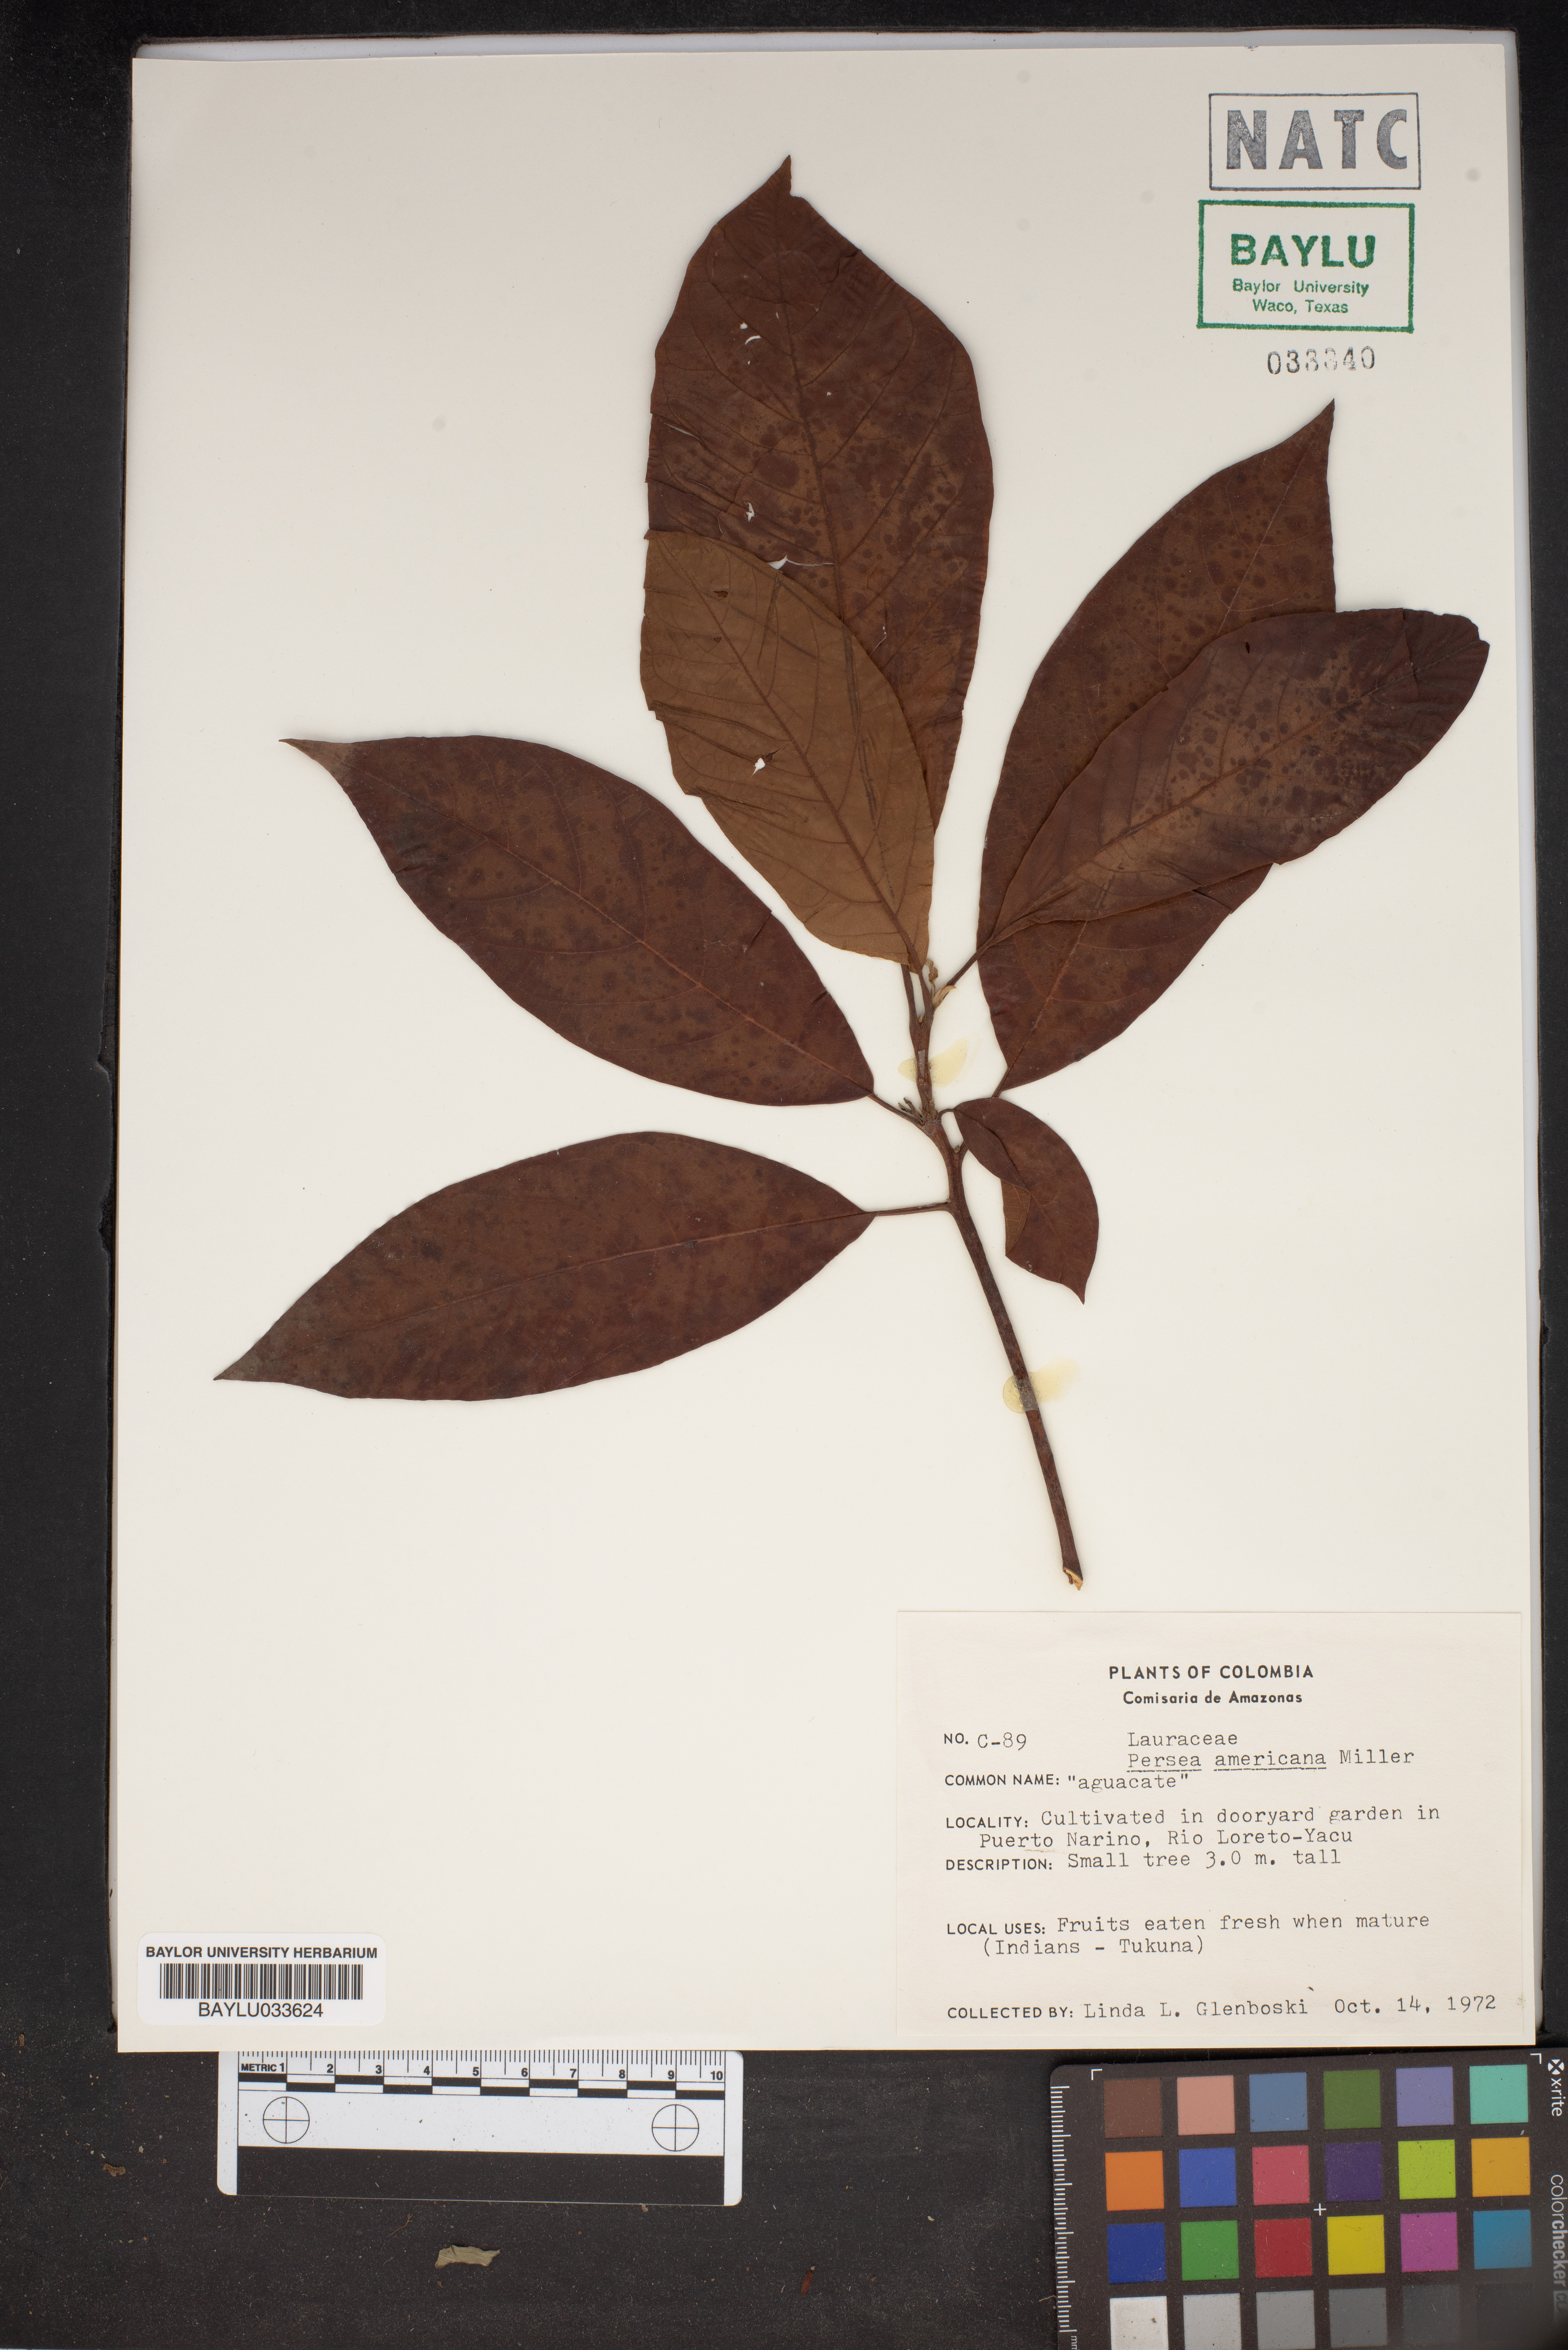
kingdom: Plantae
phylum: Tracheophyta
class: Magnoliopsida
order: Laurales
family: Lauraceae
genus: Persea
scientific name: Persea americana
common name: Avocado
